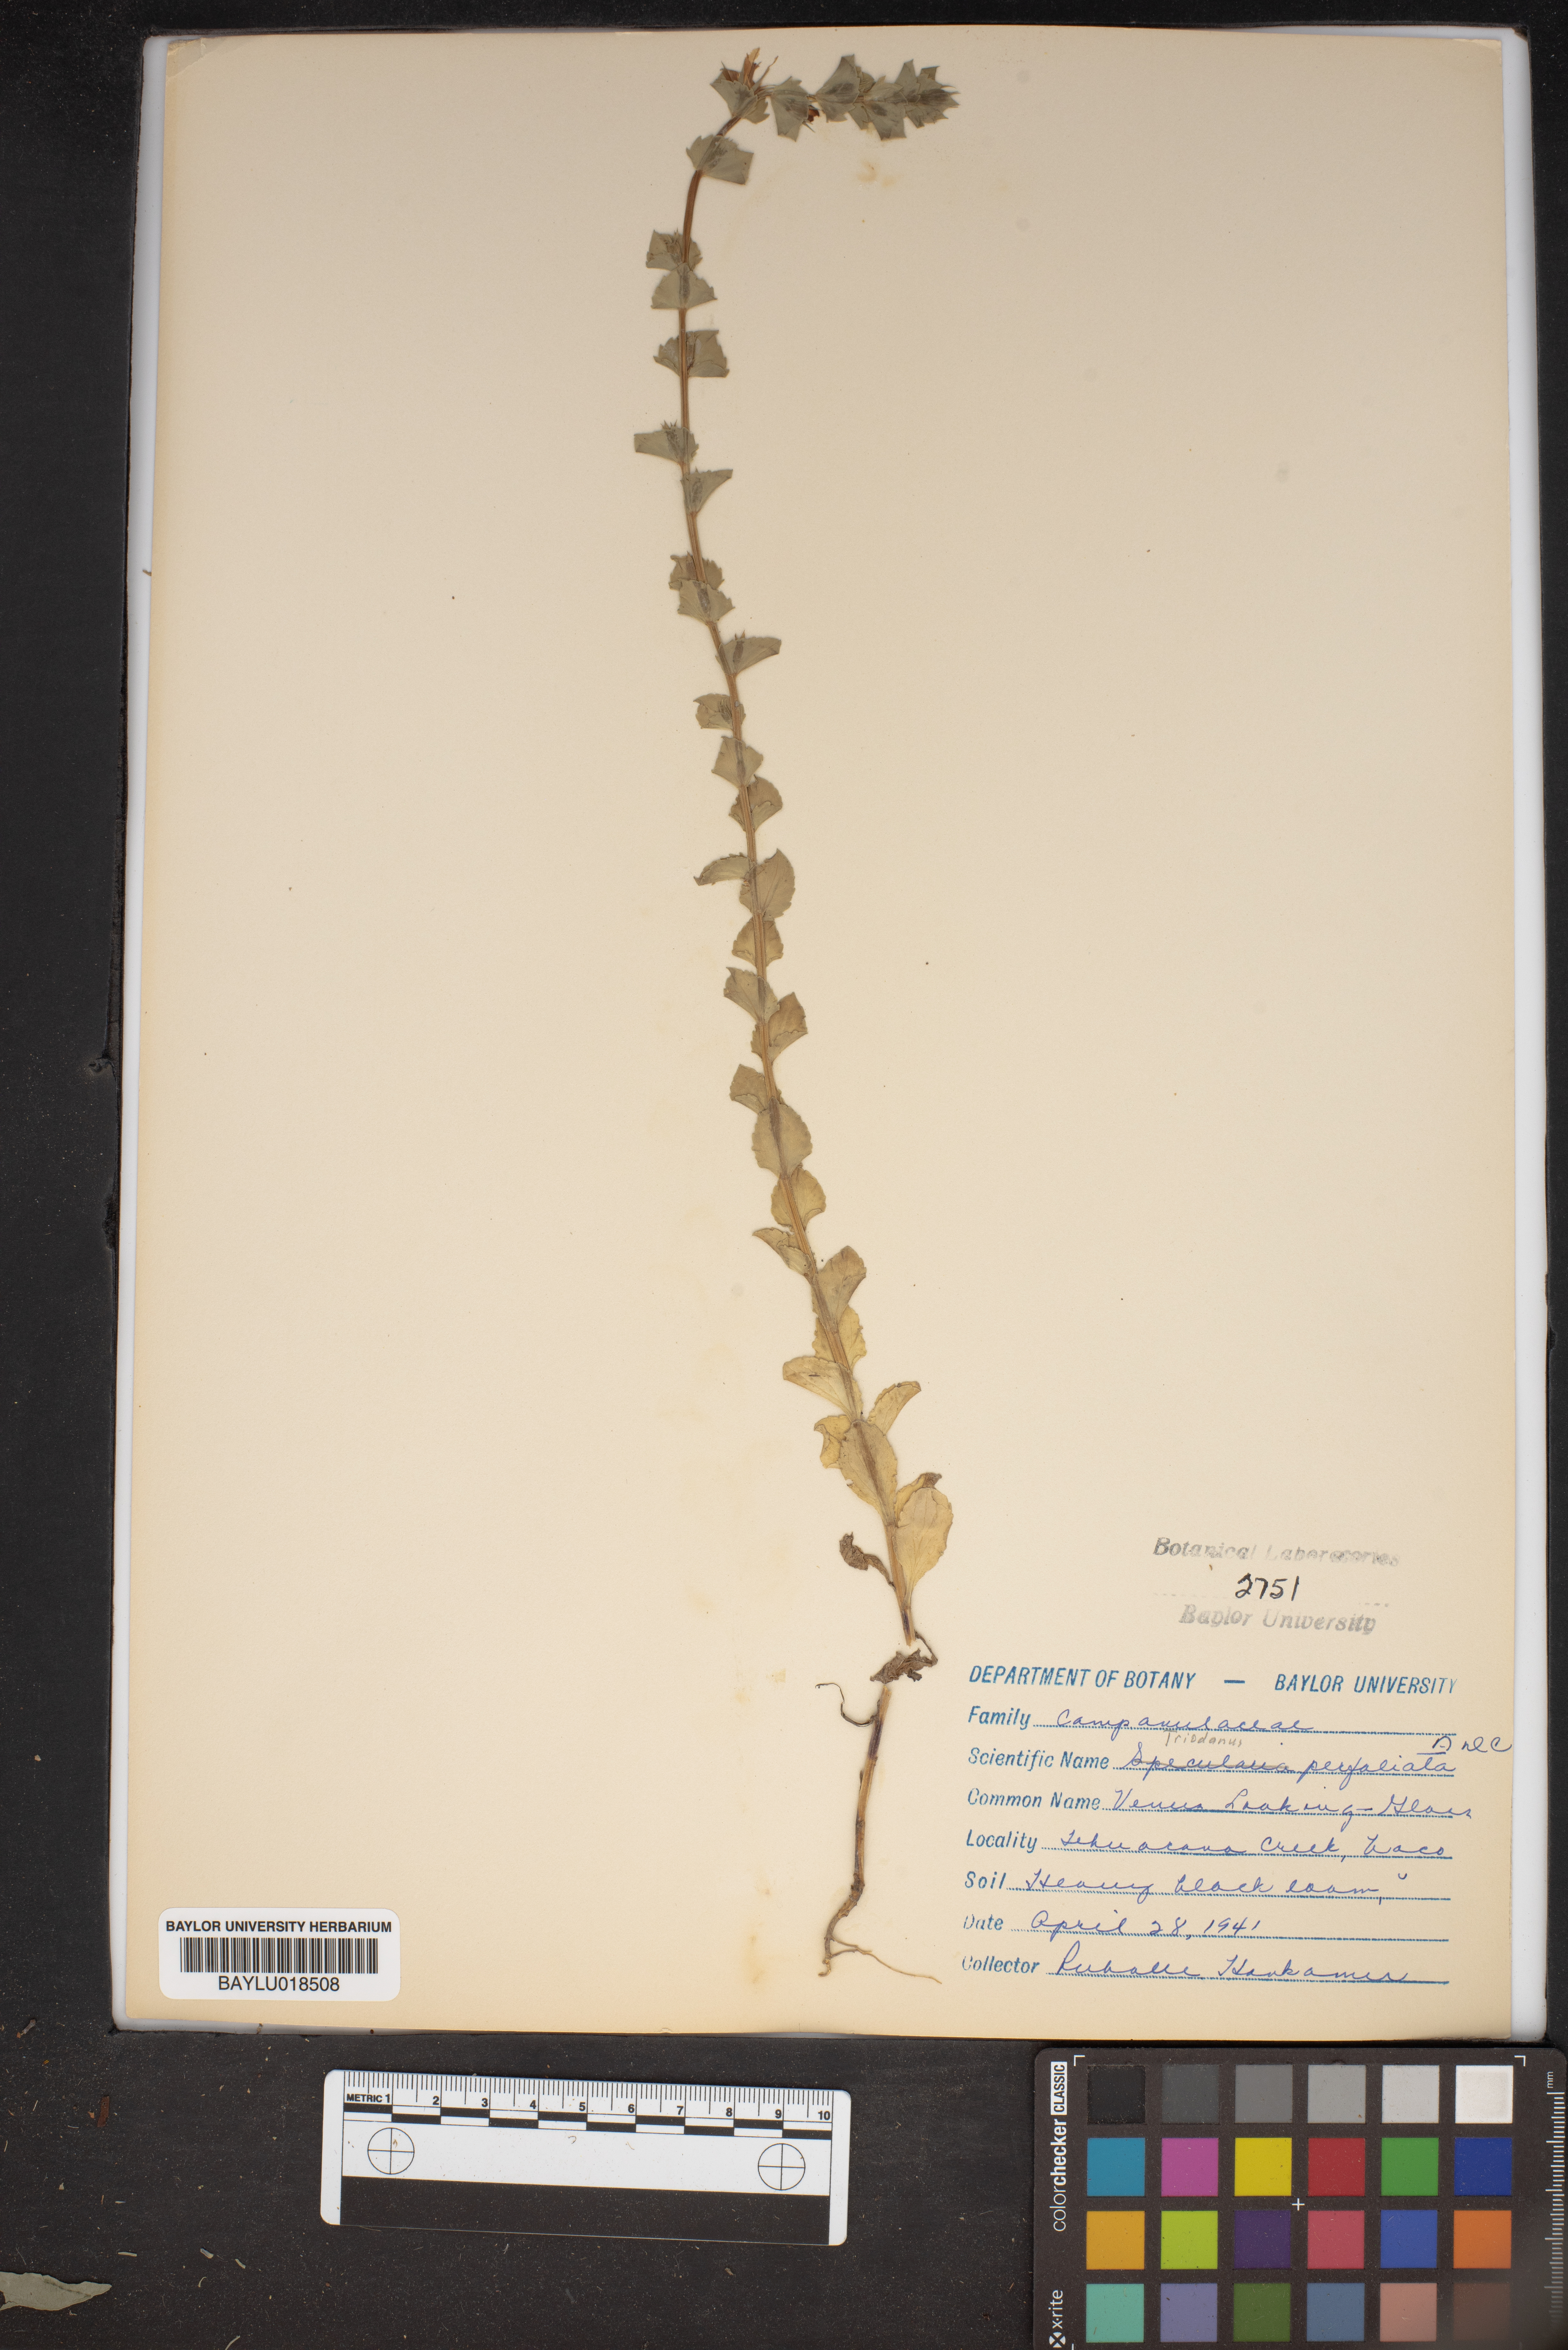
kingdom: Plantae
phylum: Tracheophyta
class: Magnoliopsida
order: Asterales
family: Campanulaceae
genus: Triodanis
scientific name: Triodanis perfoliata
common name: Clasping venus' looking-glass
